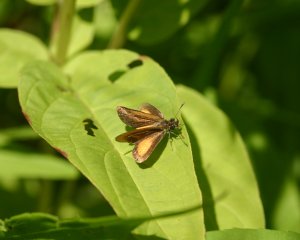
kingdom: Animalia
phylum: Arthropoda
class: Insecta
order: Lepidoptera
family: Hesperiidae
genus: Ancyloxypha
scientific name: Ancyloxypha numitor
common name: Least Skipper
